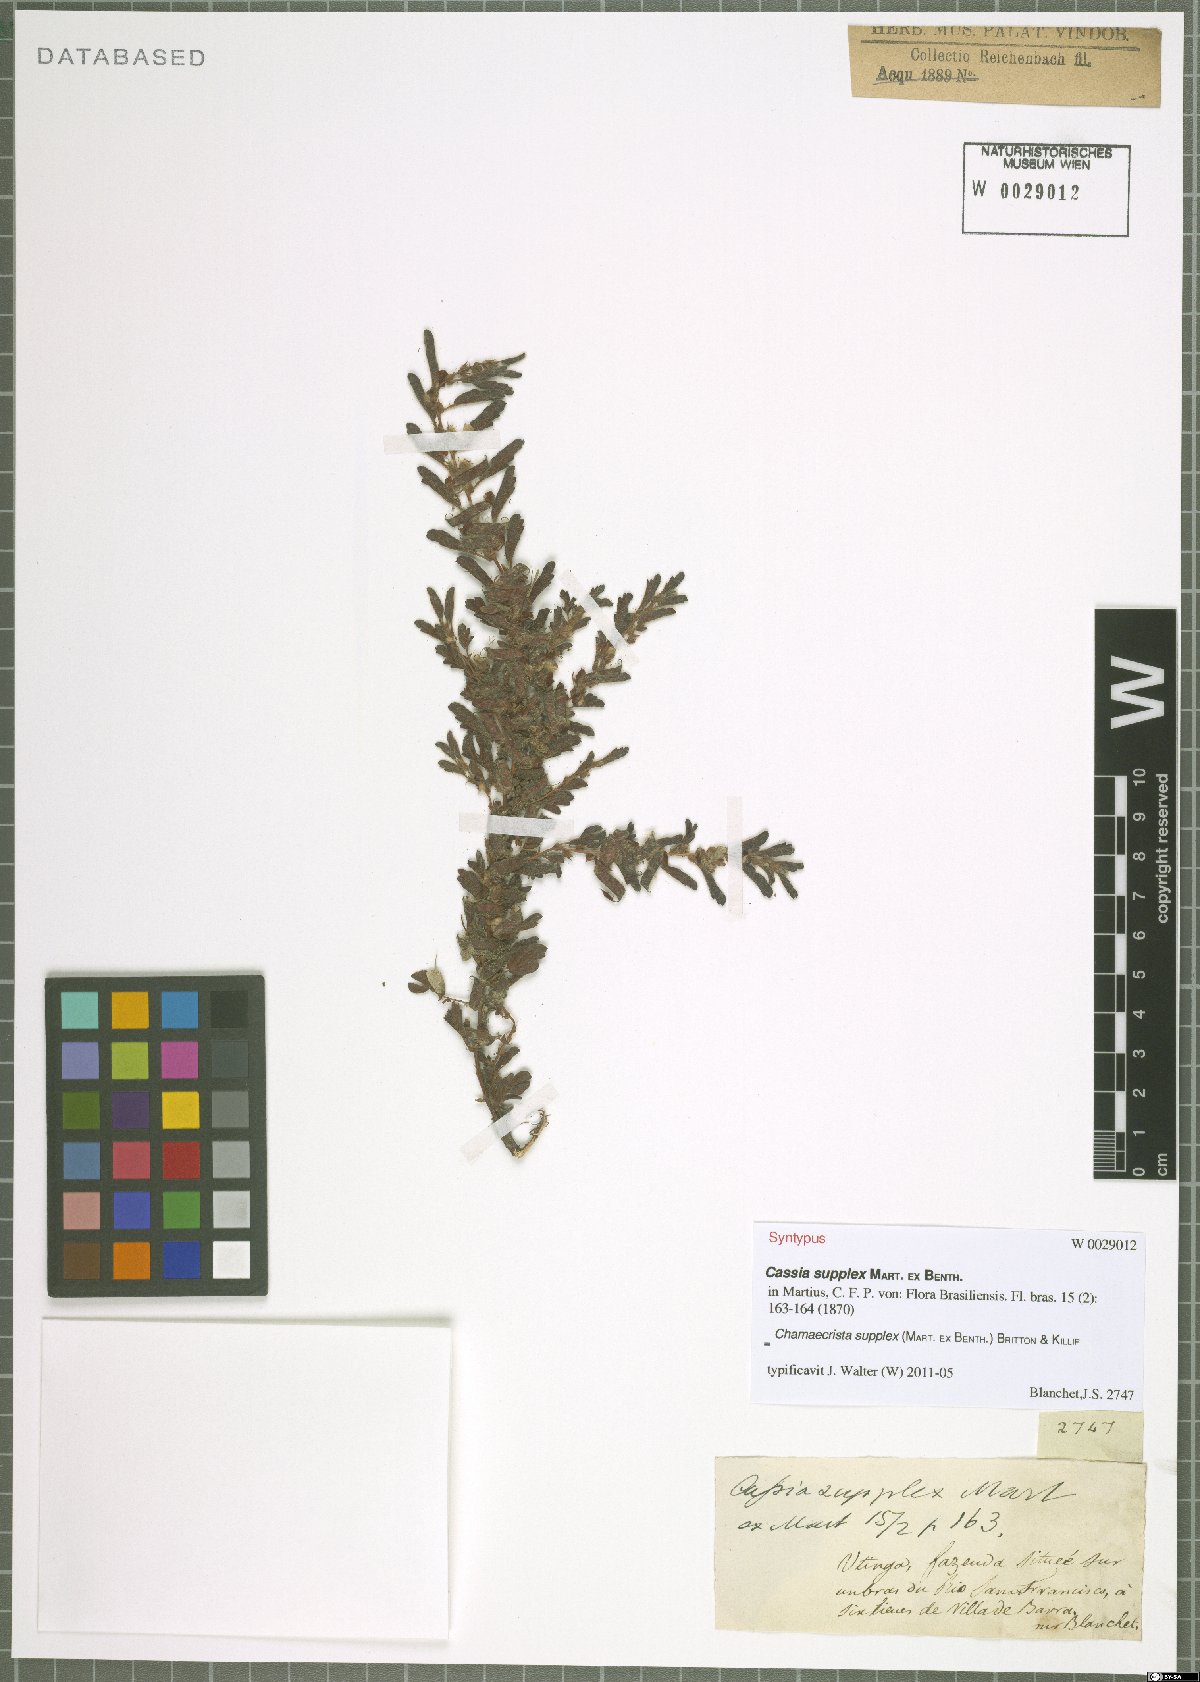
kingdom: Plantae
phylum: Tracheophyta
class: Magnoliopsida
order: Fabales
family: Fabaceae
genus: Chamaecrista
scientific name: Chamaecrista supplex
